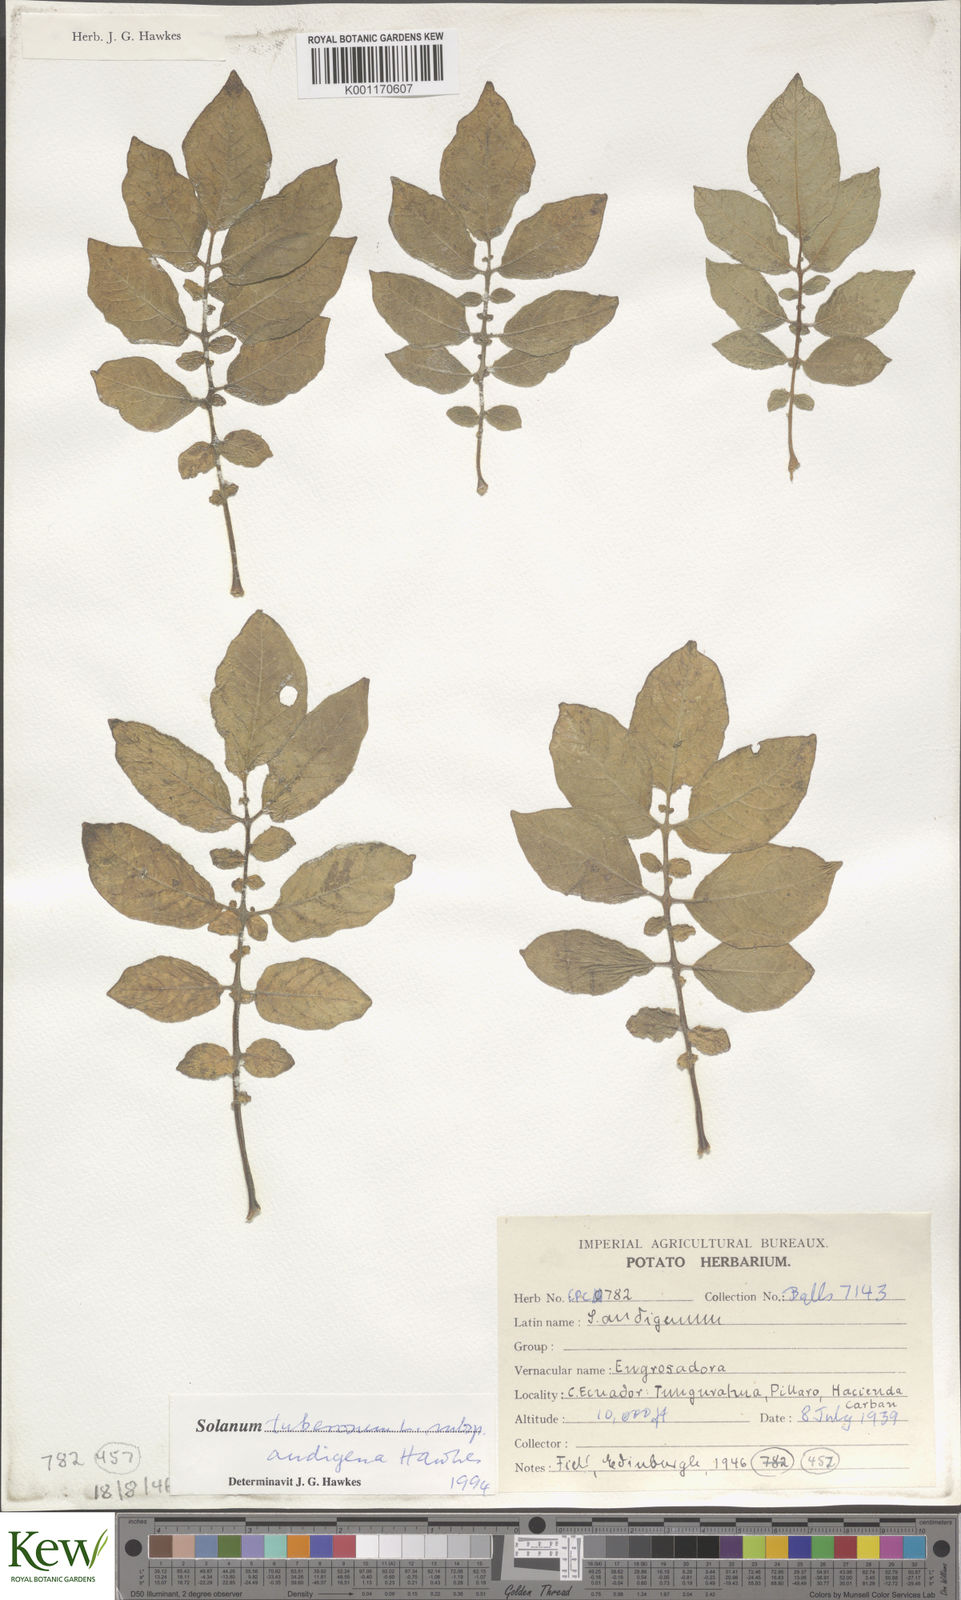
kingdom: Plantae
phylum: Tracheophyta
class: Magnoliopsida
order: Solanales
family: Solanaceae
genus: Solanum
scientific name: Solanum tuberosum
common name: Potato
